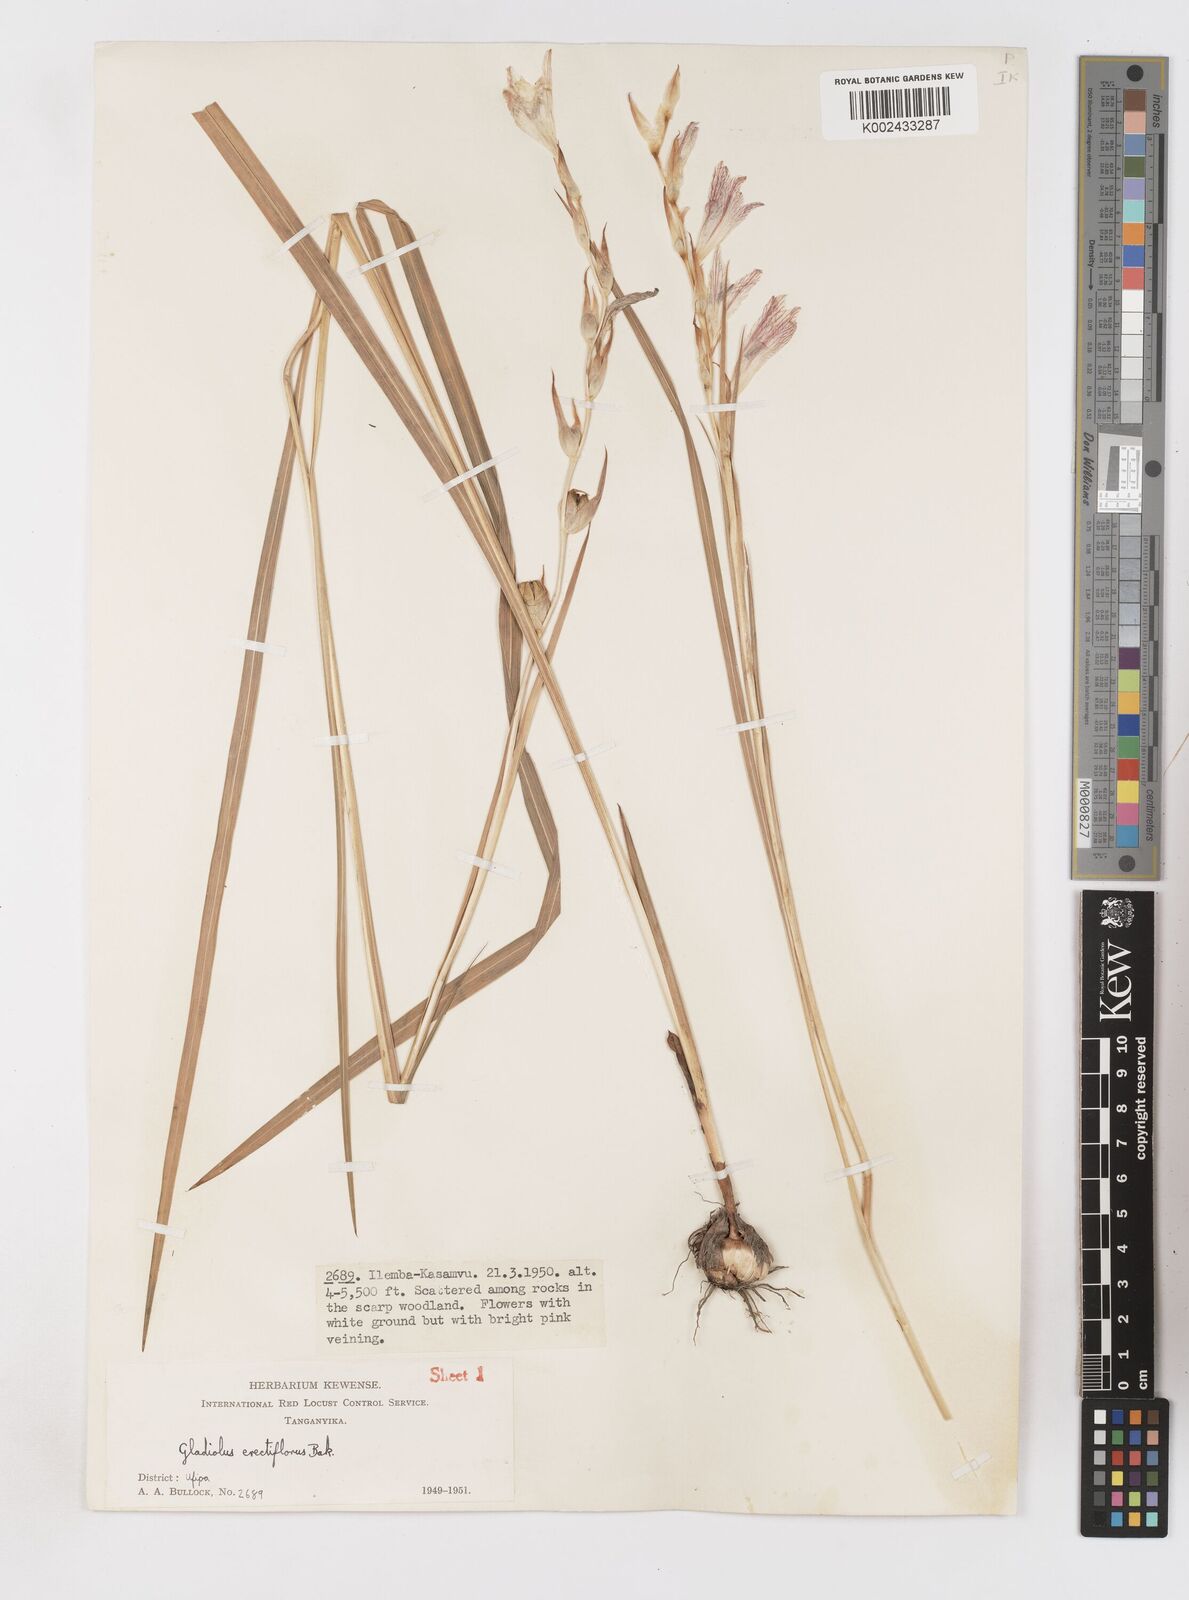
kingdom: Plantae
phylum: Tracheophyta
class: Liliopsida
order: Asparagales
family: Iridaceae
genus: Gladiolus
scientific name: Gladiolus erectiflorus
